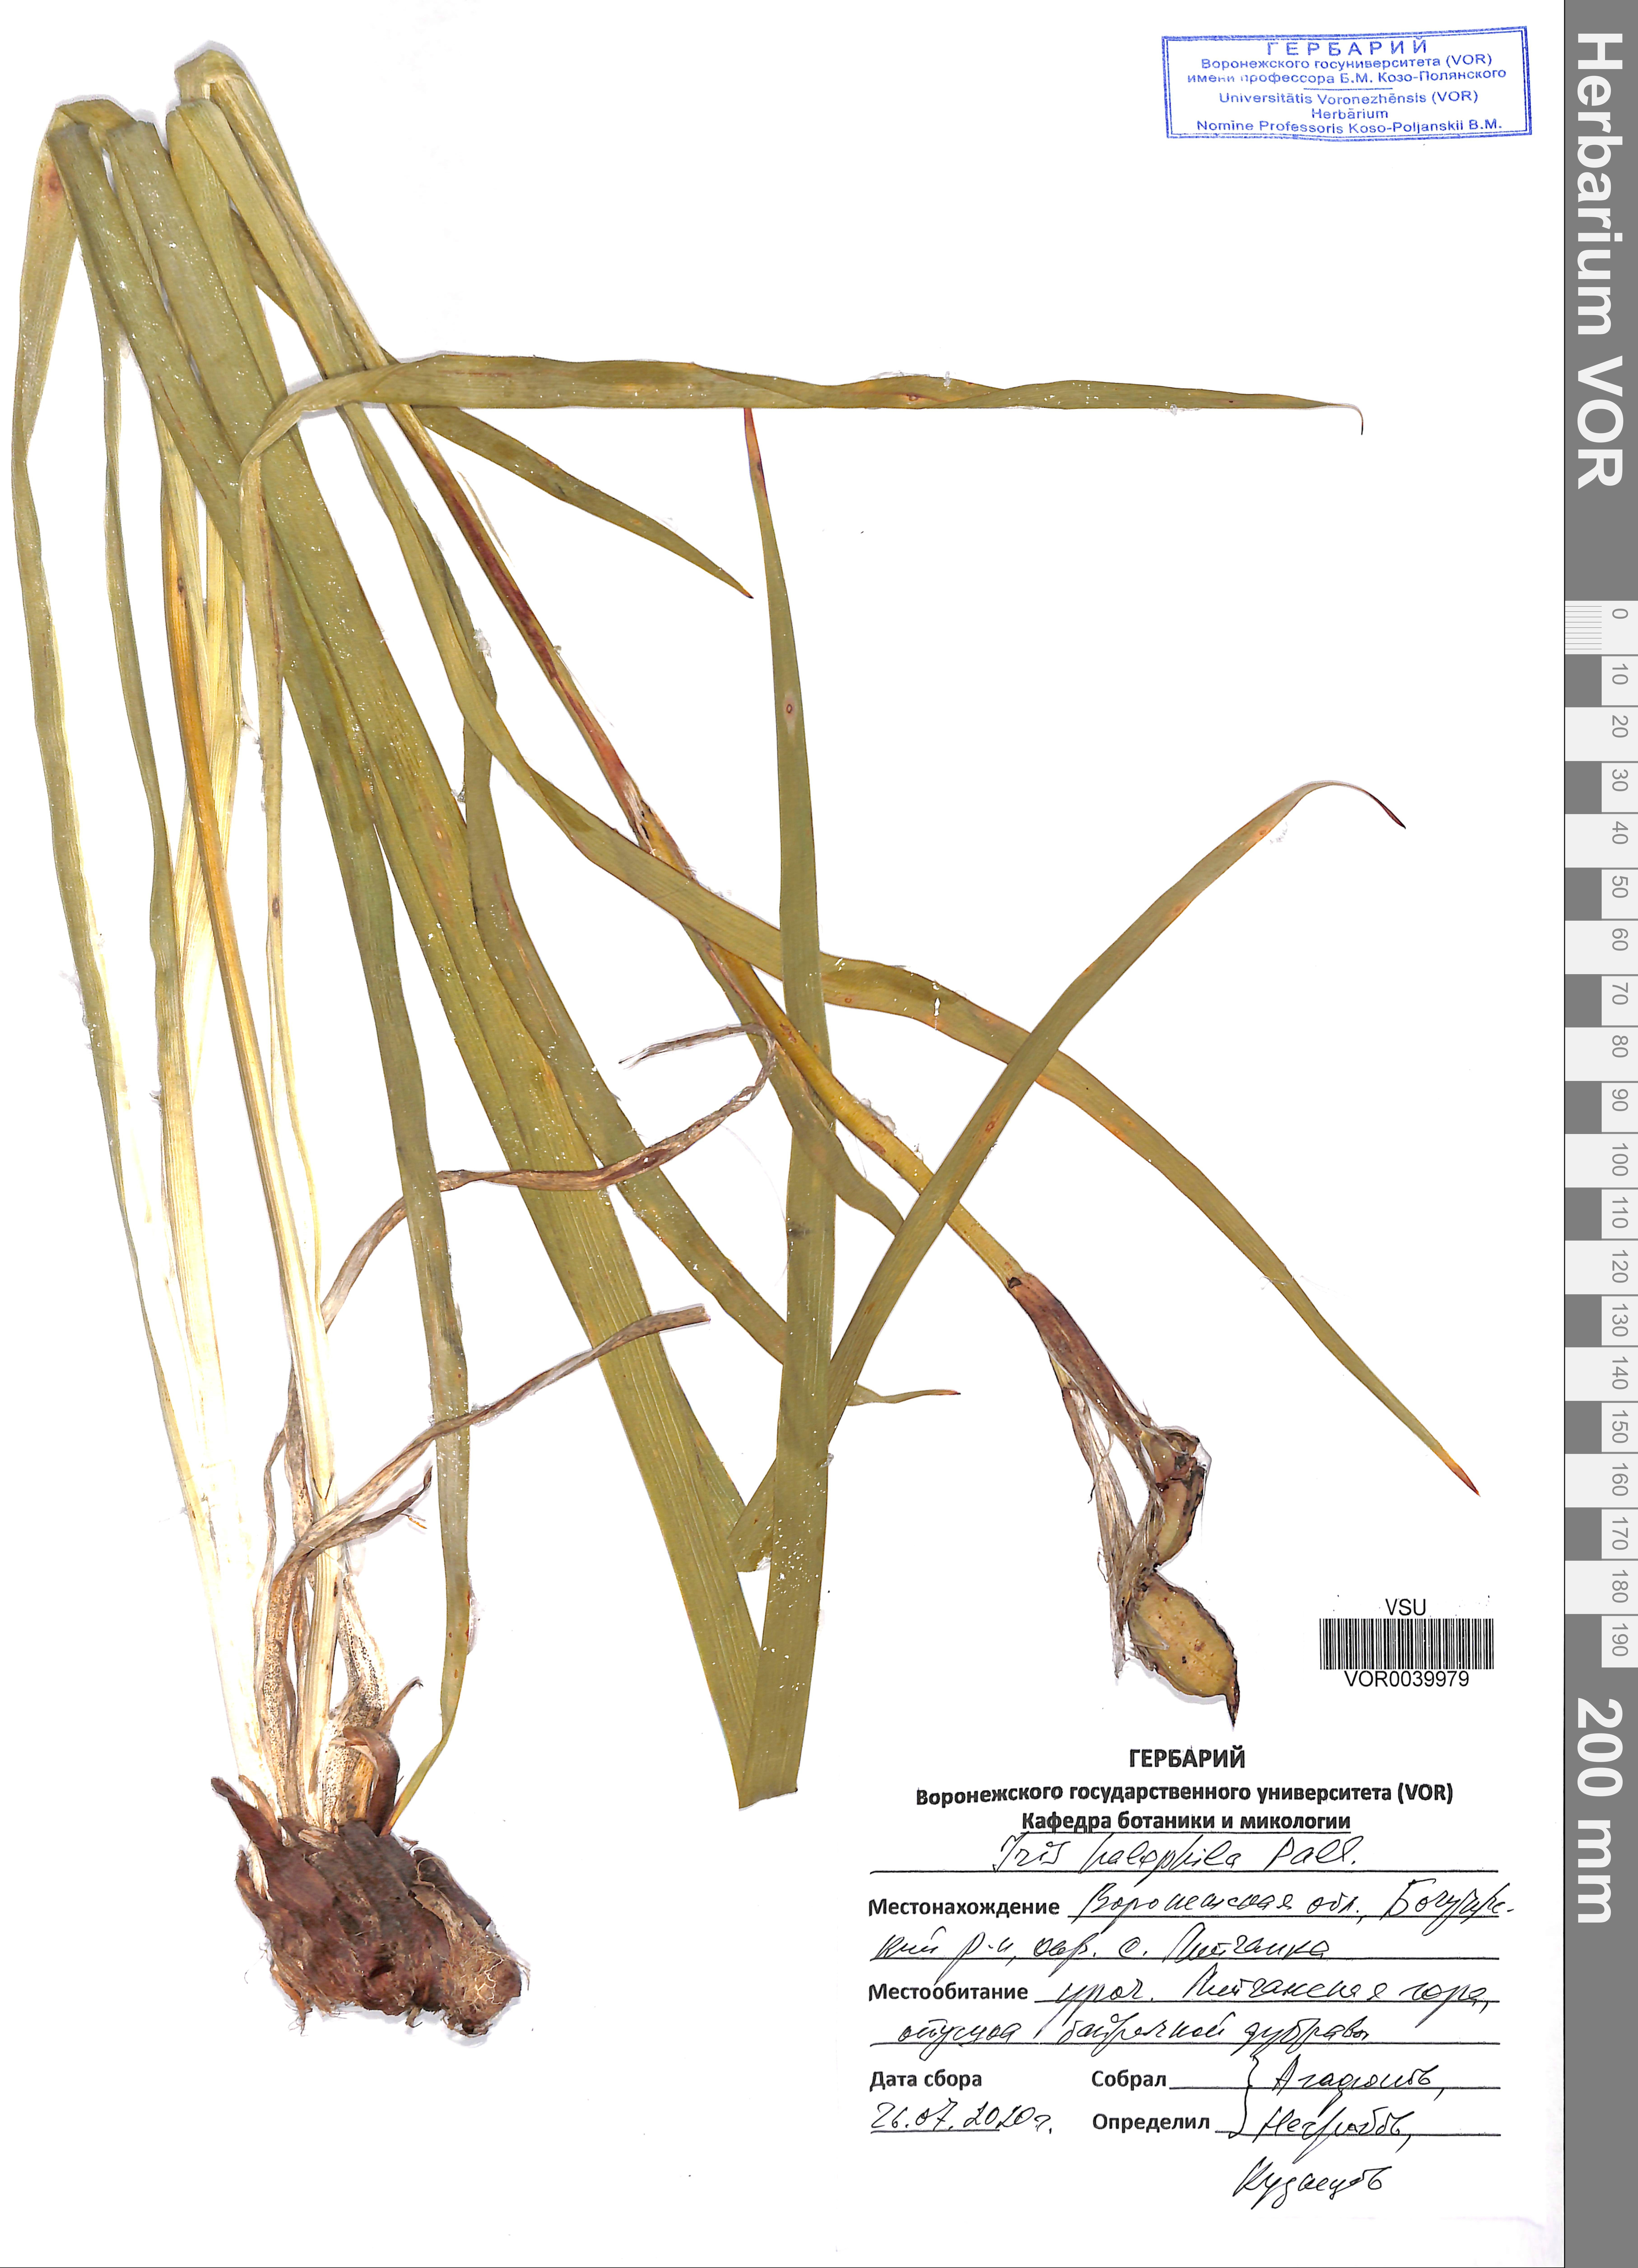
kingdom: Plantae
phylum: Tracheophyta
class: Liliopsida
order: Asparagales
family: Iridaceae
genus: Iris
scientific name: Iris halophila
